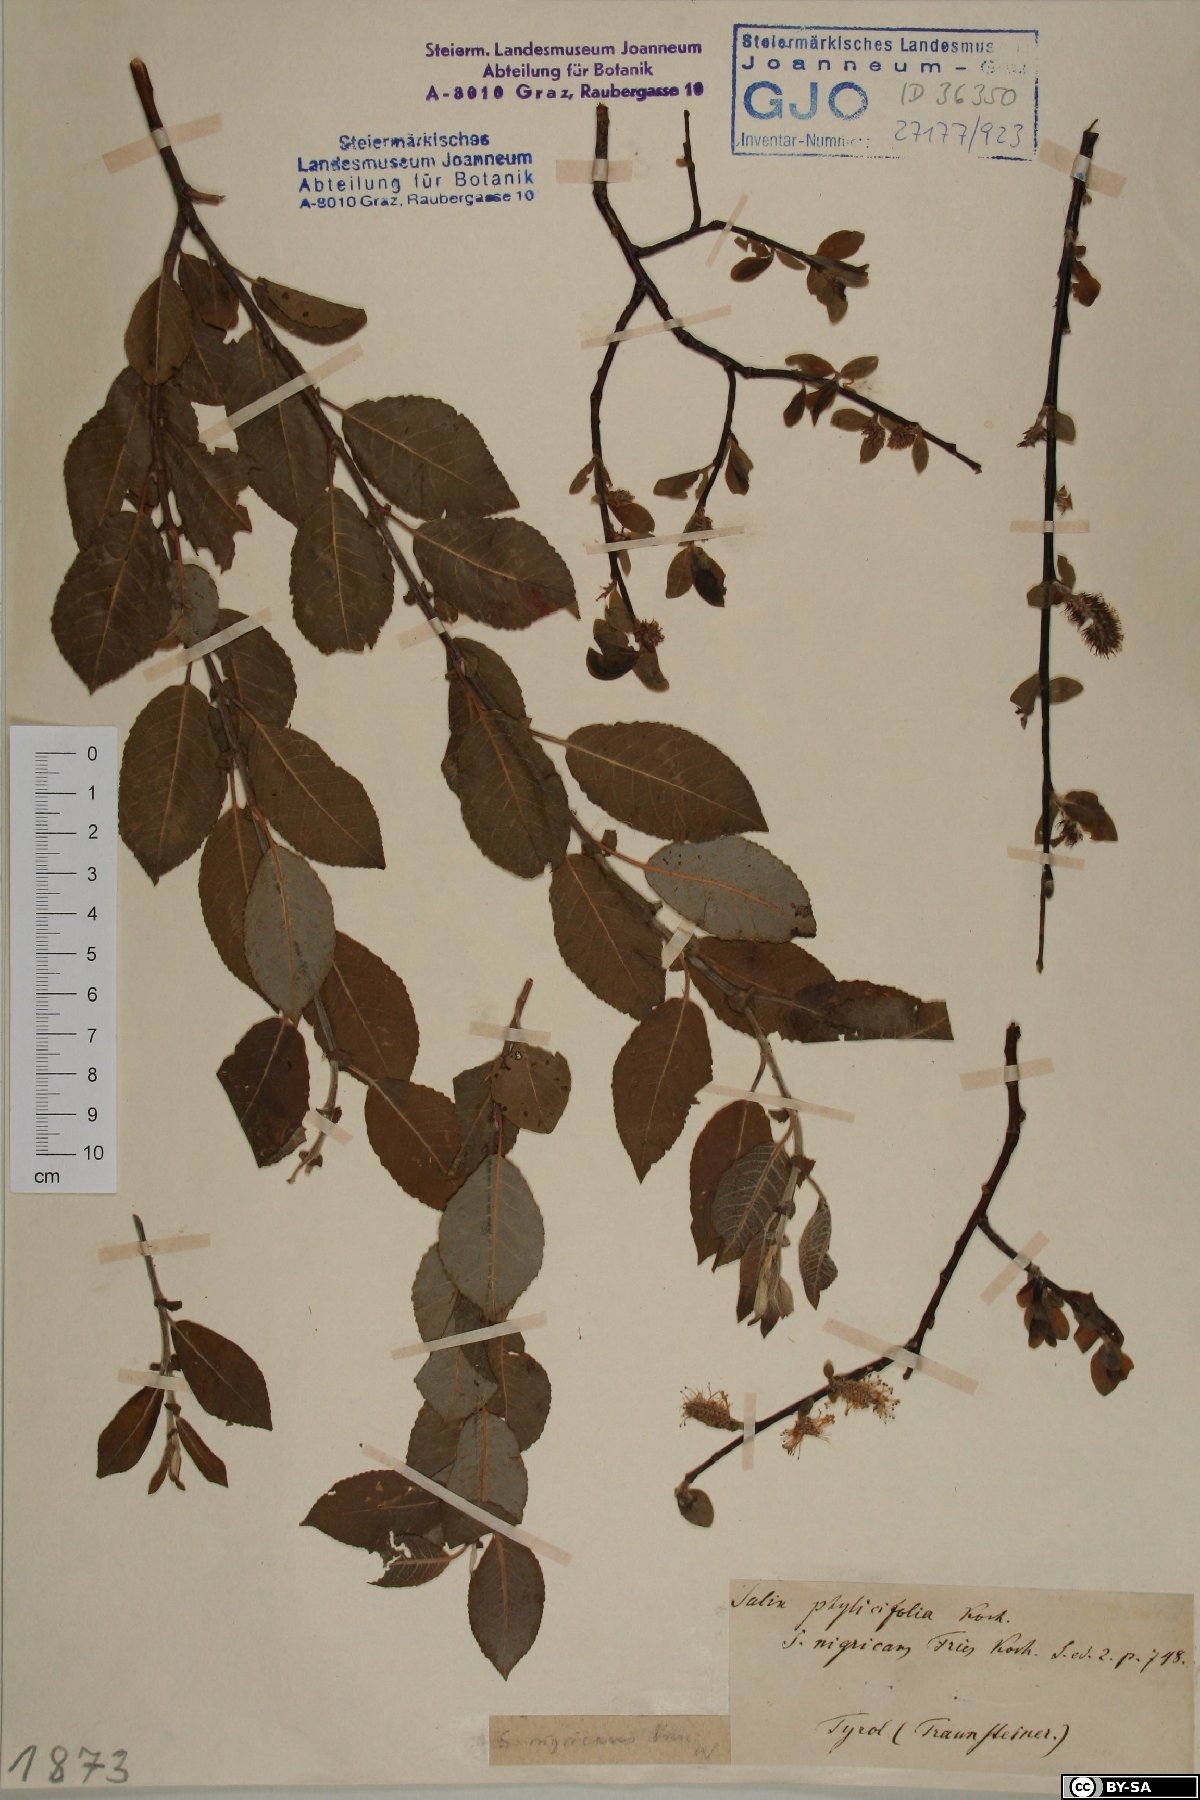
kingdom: Plantae
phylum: Tracheophyta
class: Magnoliopsida
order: Malpighiales
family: Salicaceae
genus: Salix
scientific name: Salix myrsinifolia
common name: Dark-leaved willow
